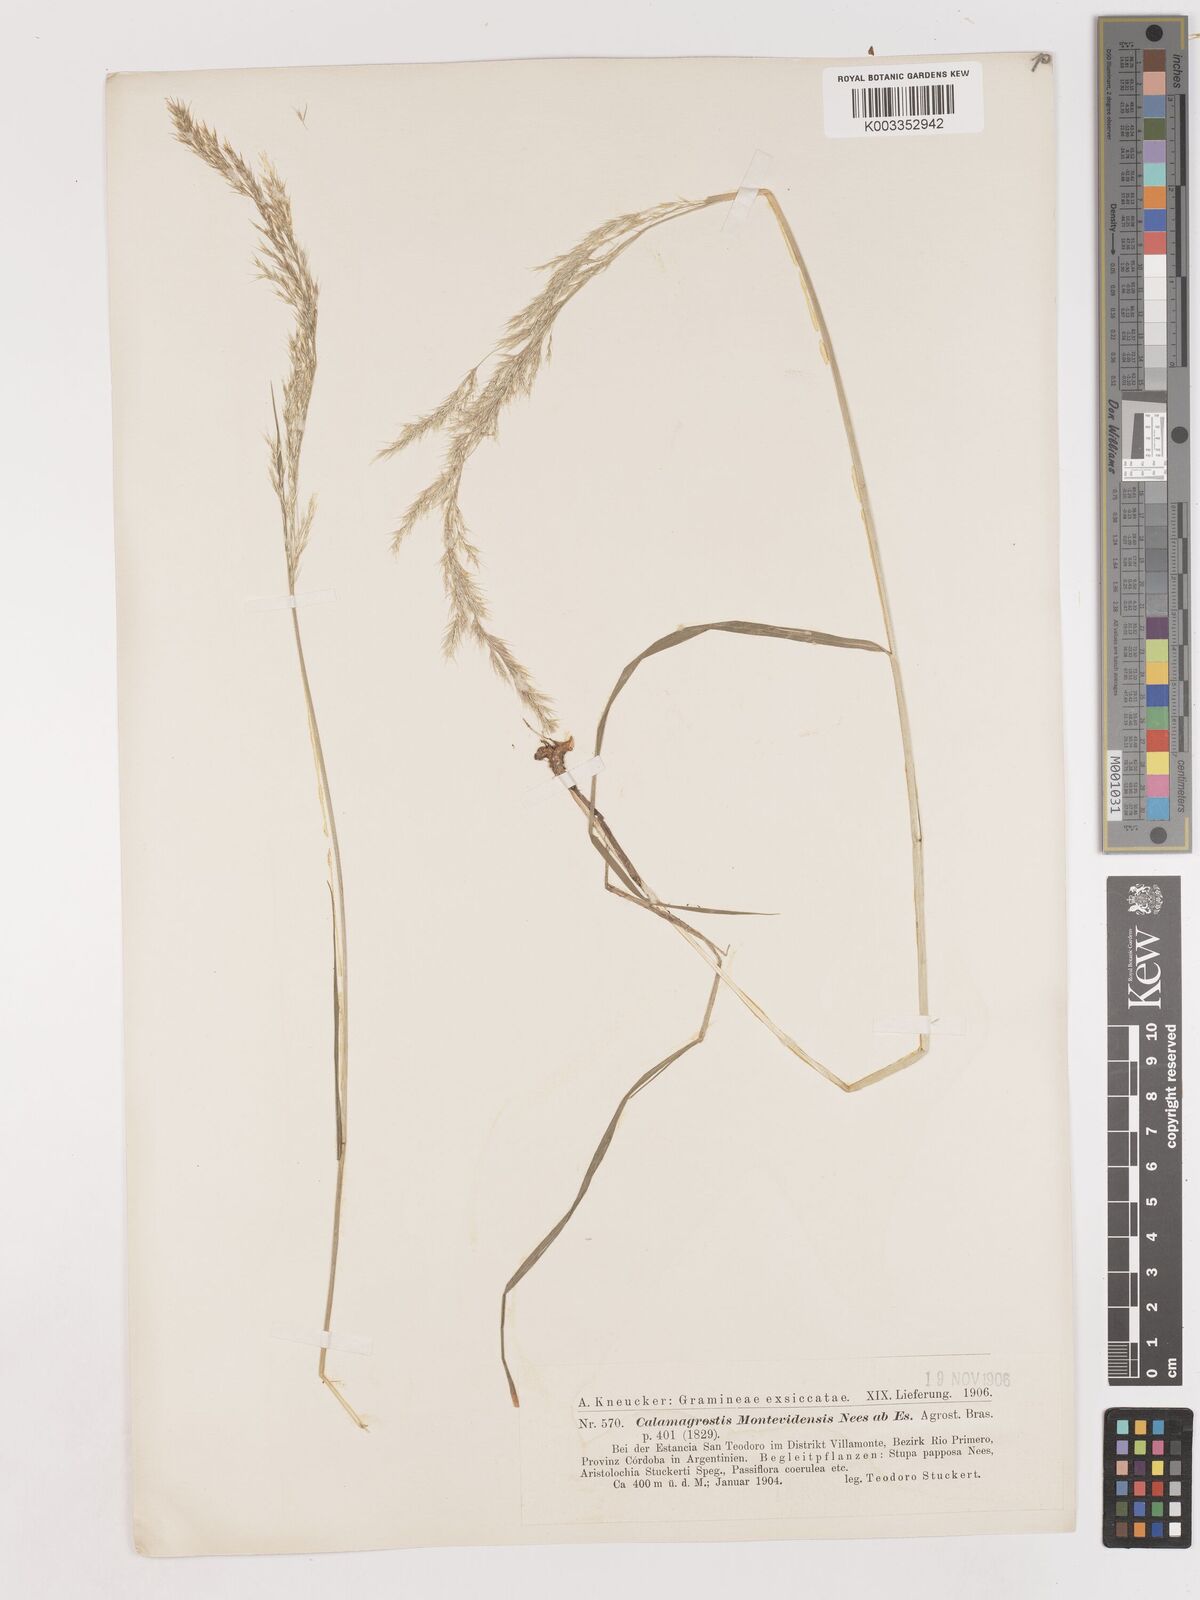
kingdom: Plantae
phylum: Tracheophyta
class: Liliopsida
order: Poales
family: Poaceae
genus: Cinnagrostis
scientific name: Cinnagrostis viridiflavescens
